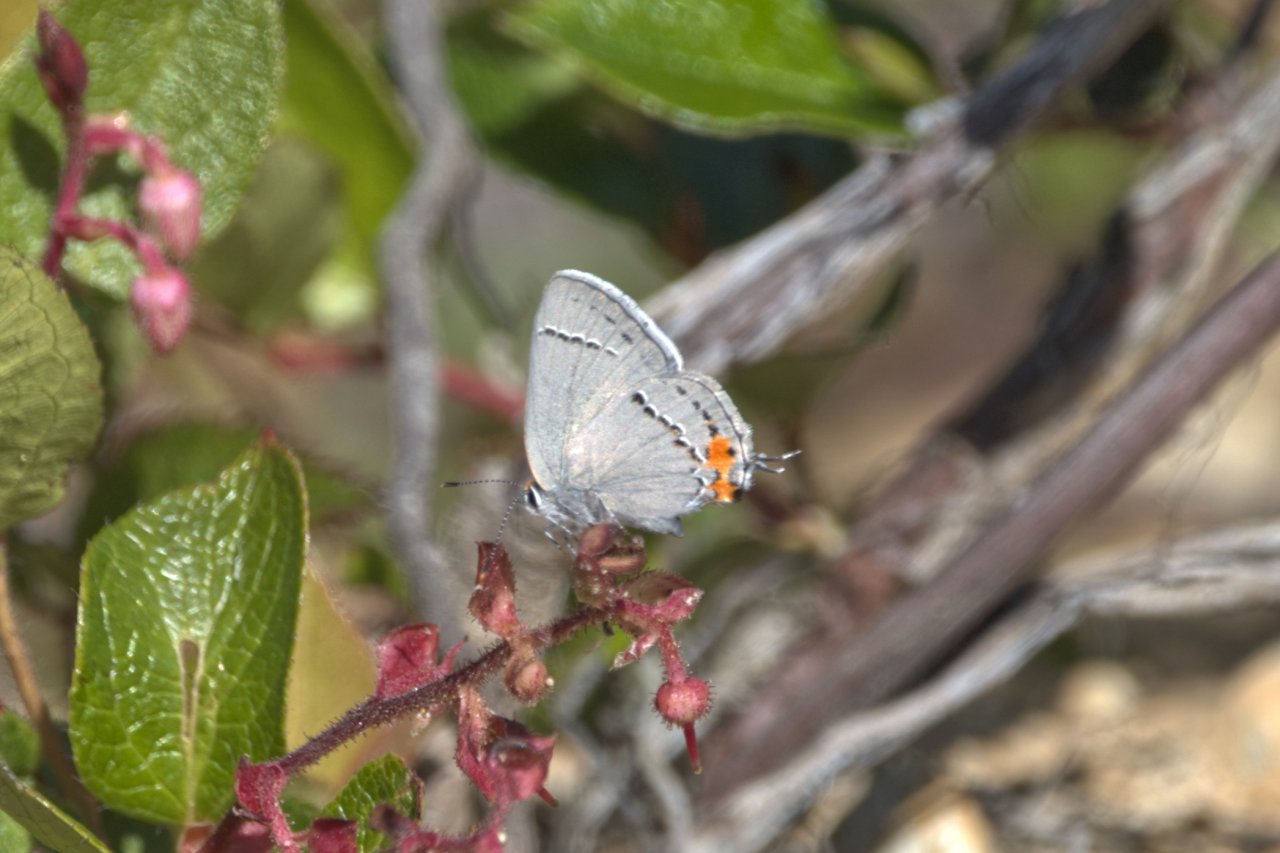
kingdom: Animalia
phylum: Arthropoda
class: Insecta
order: Lepidoptera
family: Lycaenidae
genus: Strymon
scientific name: Strymon melinus
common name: Gray Hairstreak
